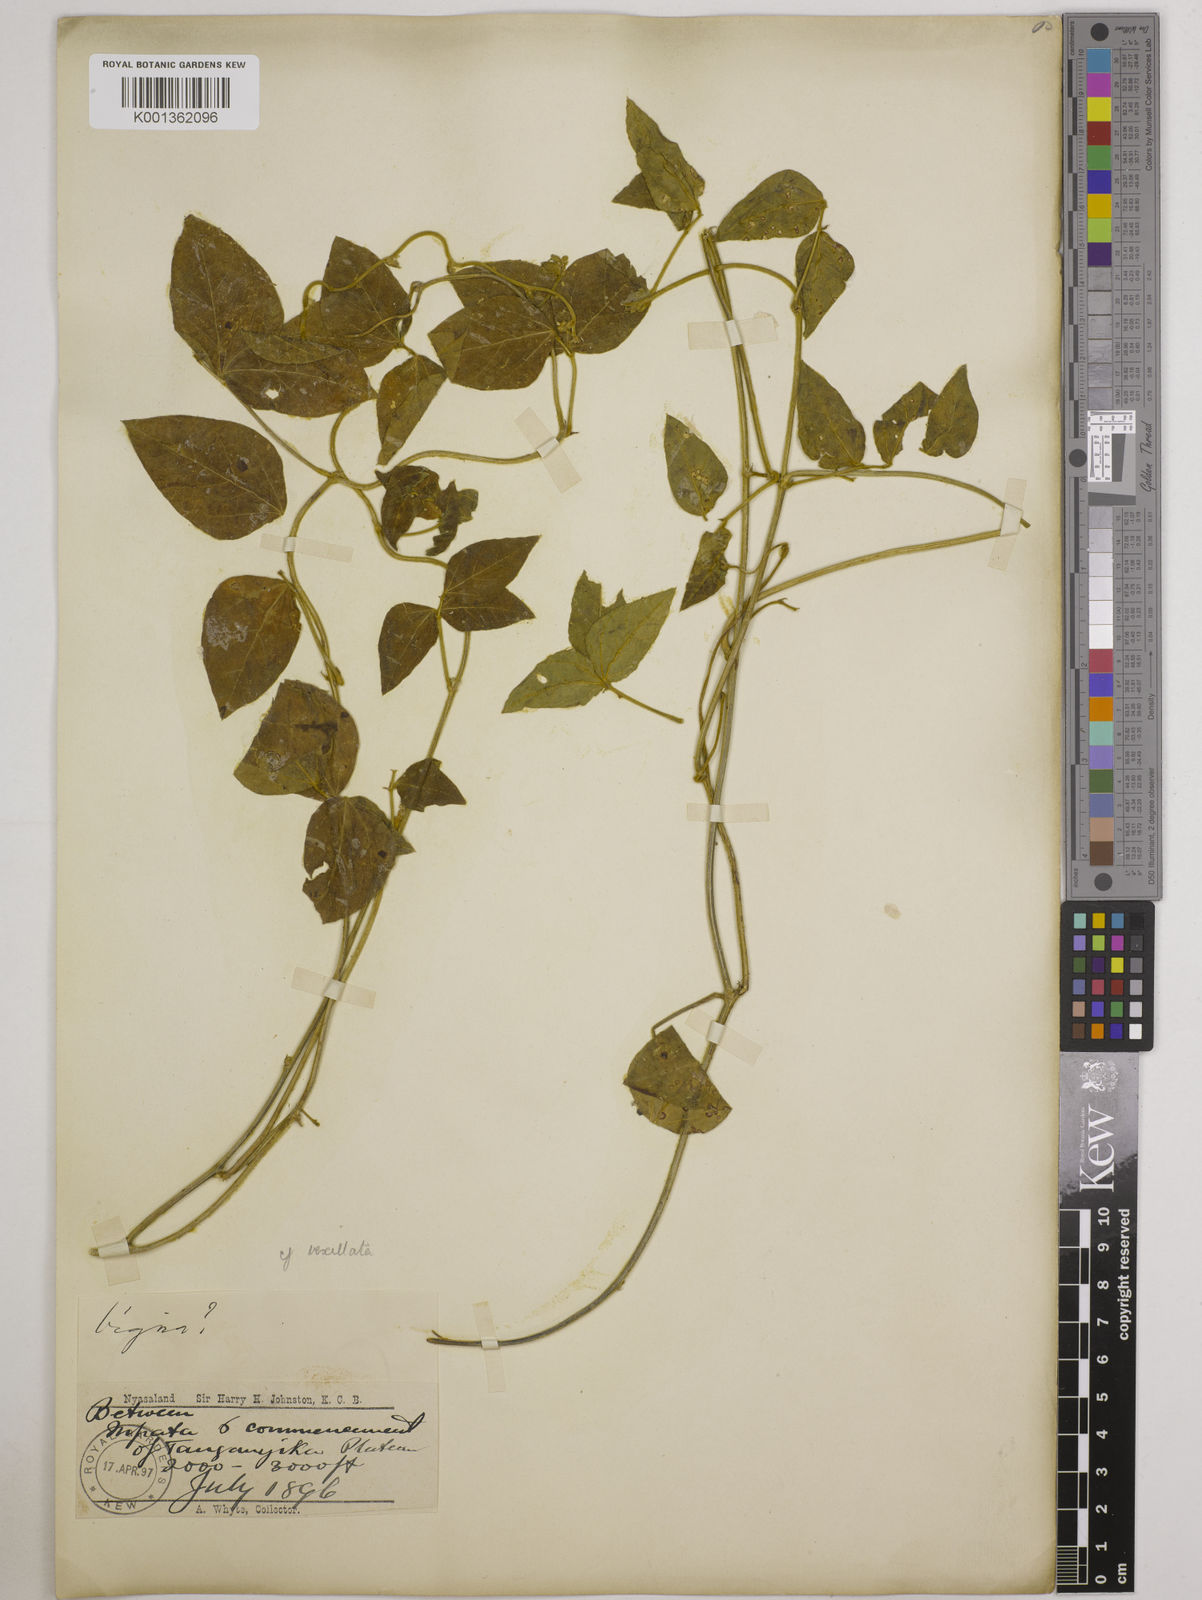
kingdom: Plantae
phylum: Tracheophyta
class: Magnoliopsida
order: Fabales
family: Fabaceae
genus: Vigna
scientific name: Vigna vexillata
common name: Zombi pea
